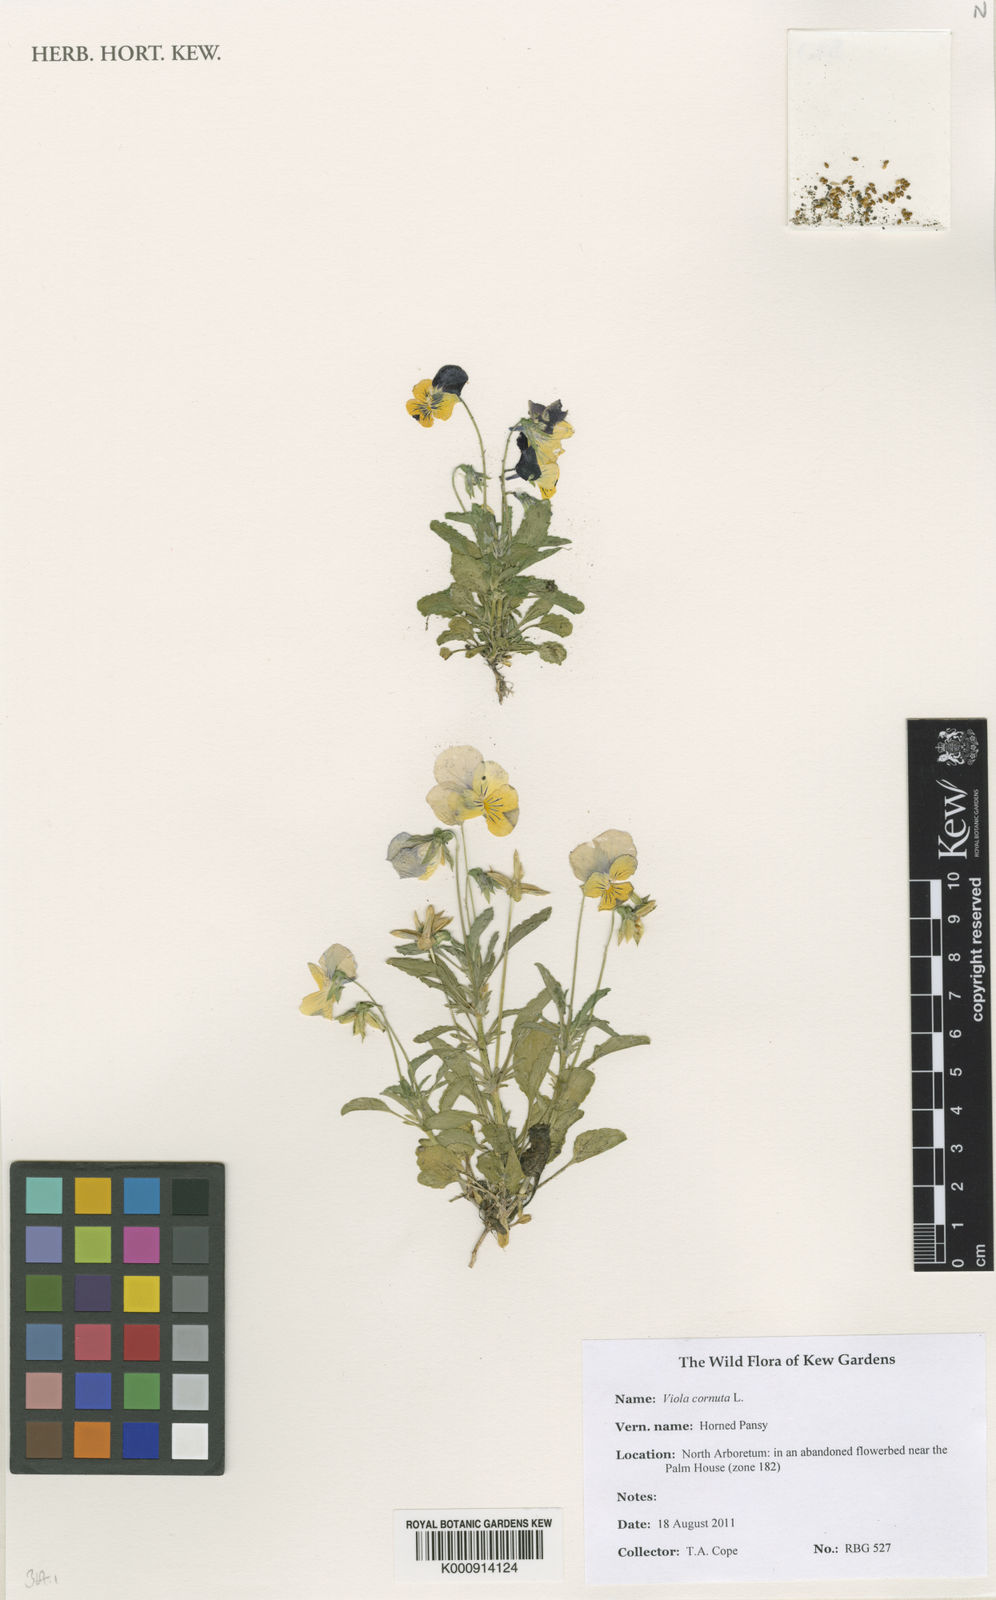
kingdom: Plantae
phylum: Tracheophyta
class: Magnoliopsida
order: Malpighiales
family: Violaceae
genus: Viola
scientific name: Viola cornuta
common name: Horned pansy
